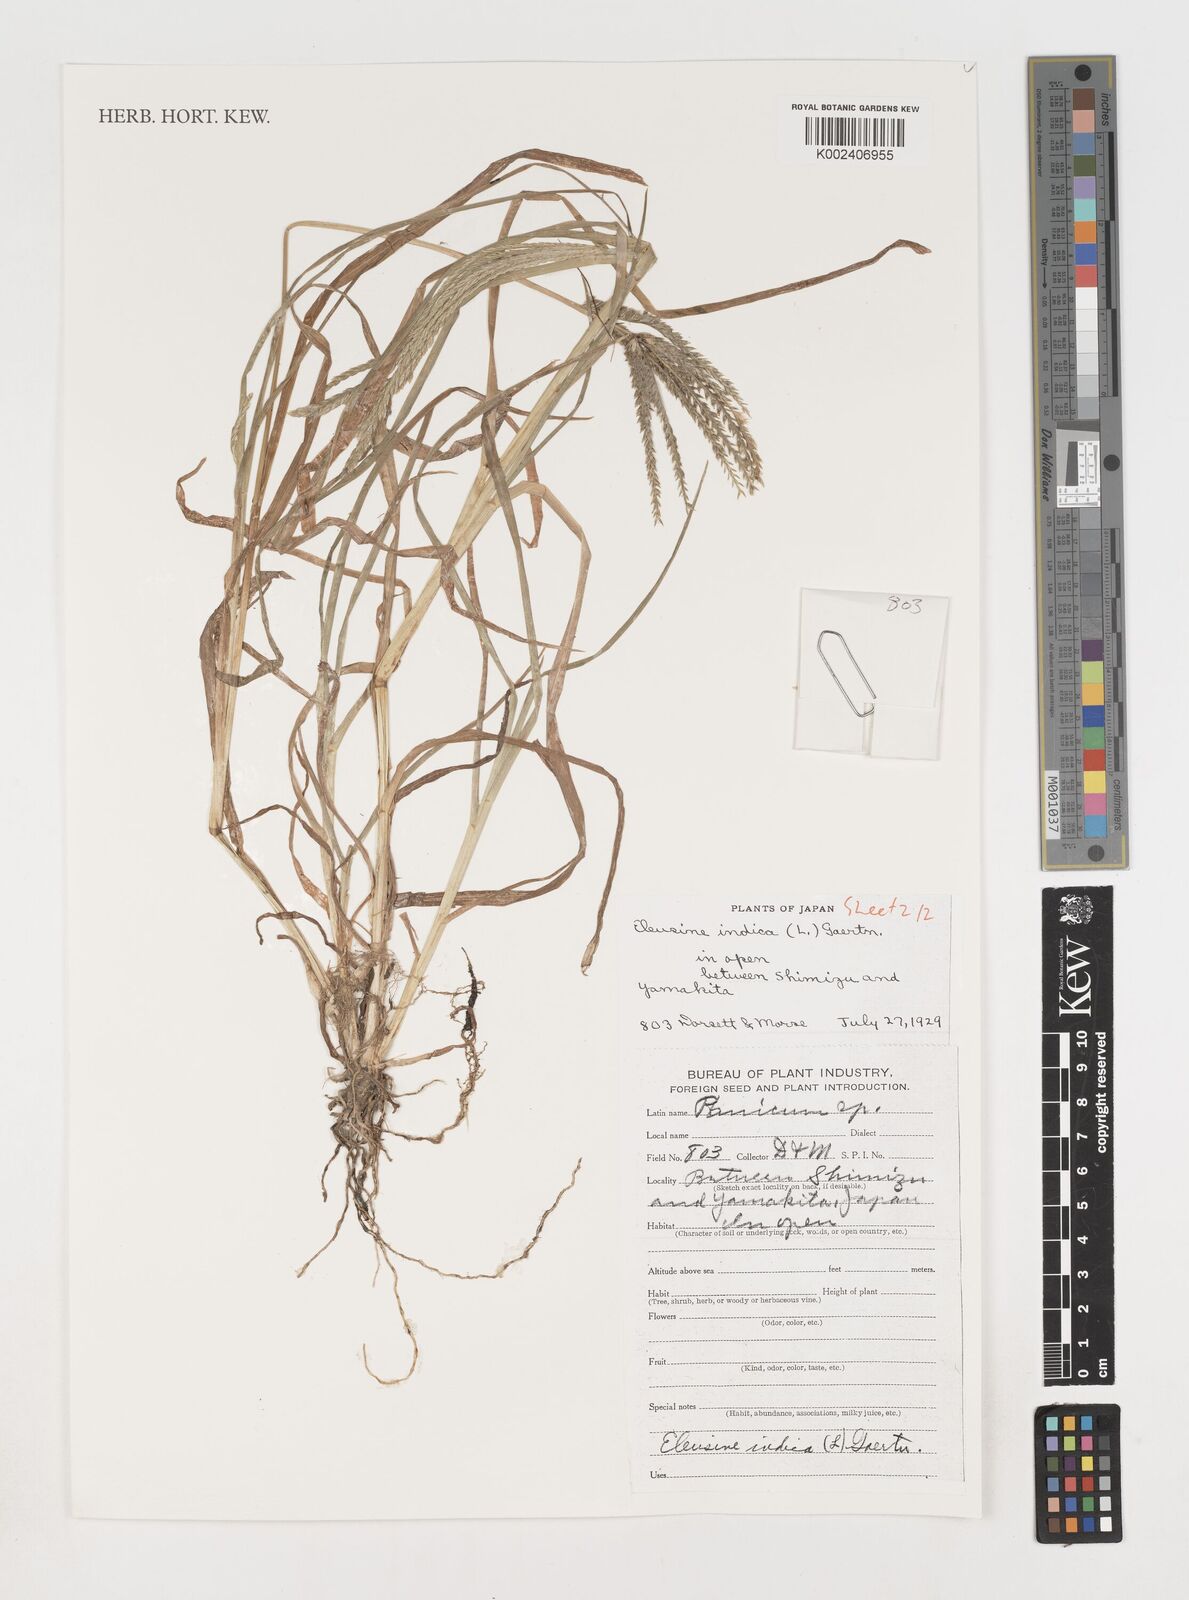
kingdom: Plantae
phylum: Tracheophyta
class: Liliopsida
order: Poales
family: Poaceae
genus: Eleusine
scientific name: Eleusine indica
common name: Yard-grass
